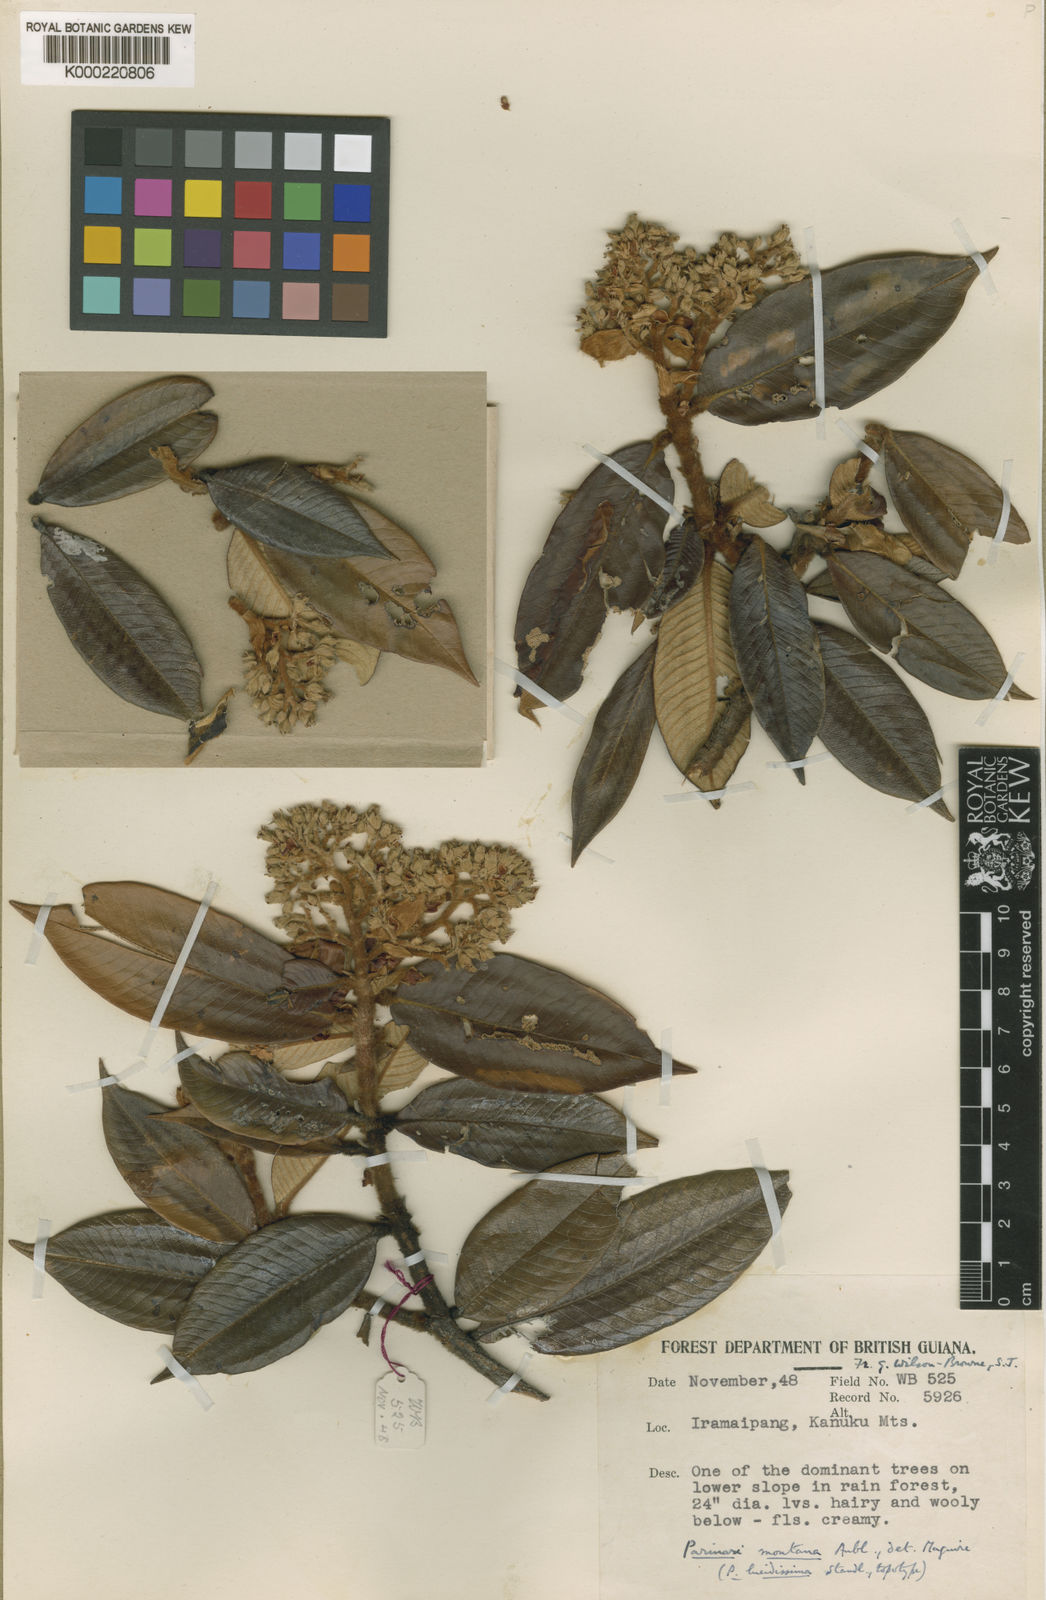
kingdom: Plantae
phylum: Tracheophyta
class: Magnoliopsida
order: Malpighiales
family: Chrysobalanaceae
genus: Parinari
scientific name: Parinari montana
